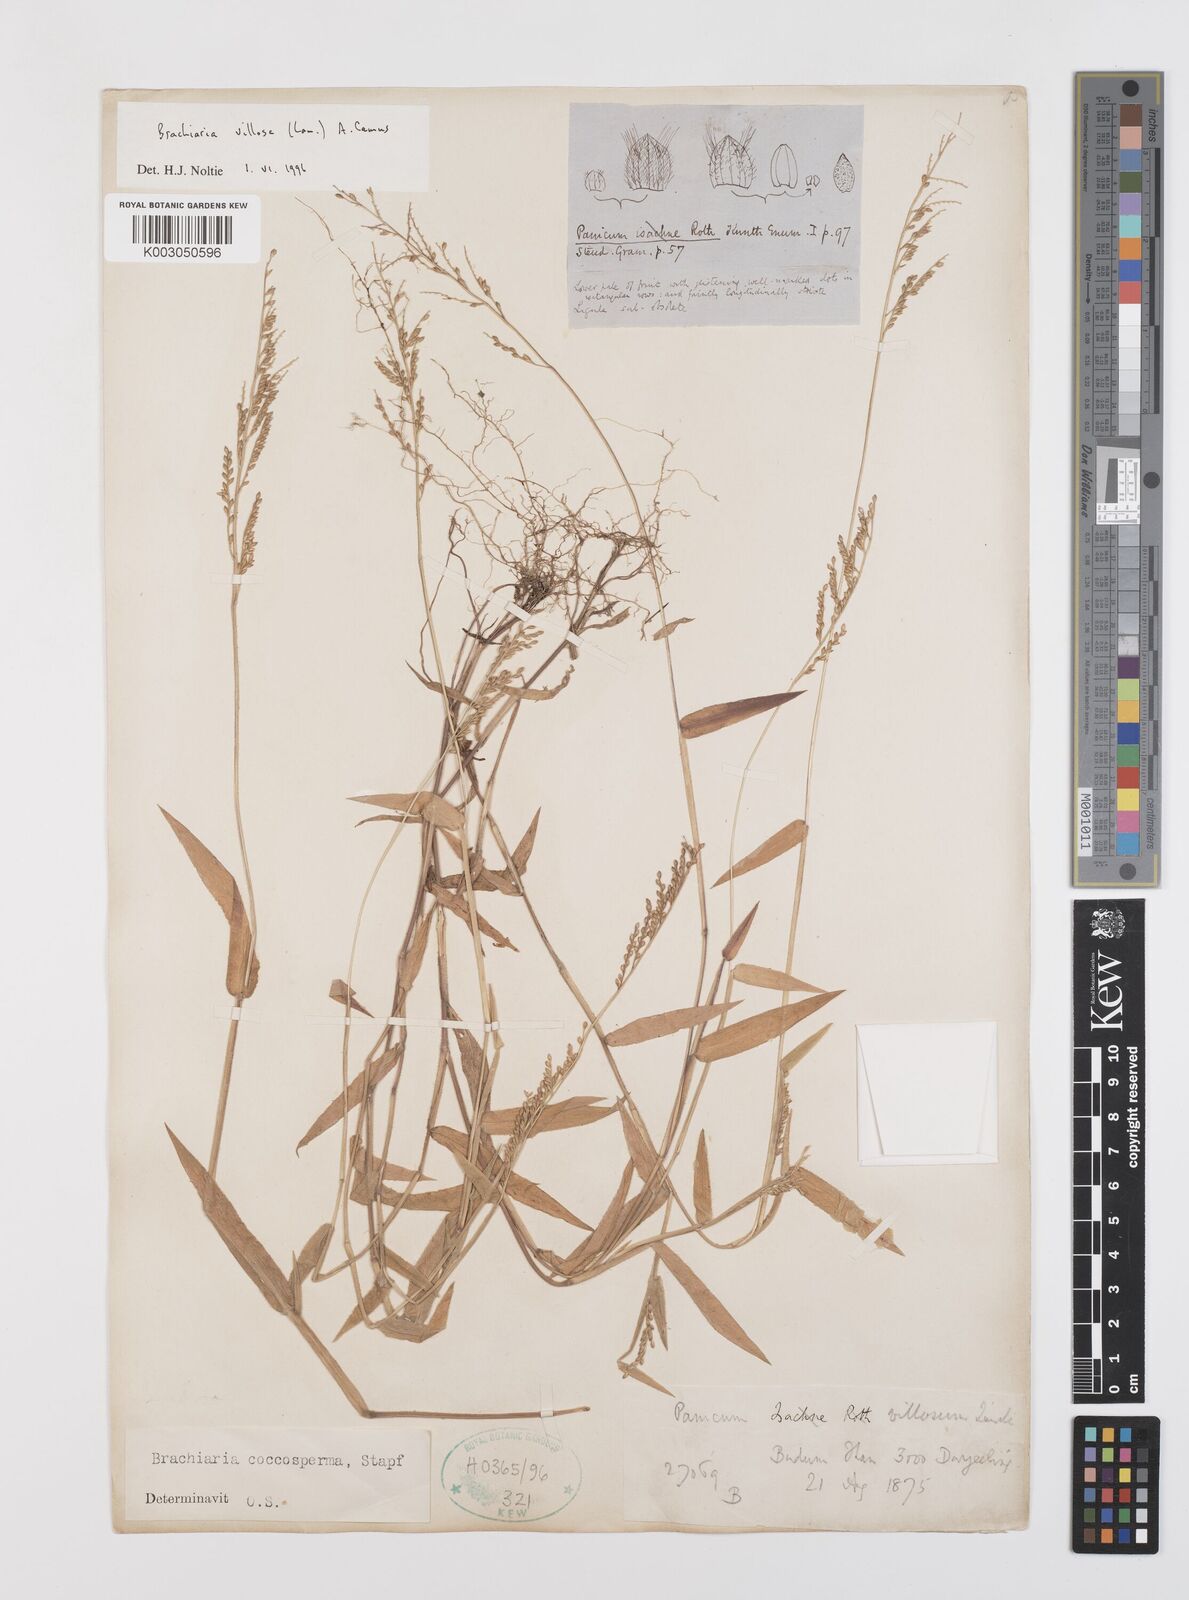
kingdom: Plantae
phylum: Tracheophyta
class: Liliopsida
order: Poales
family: Poaceae
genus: Urochloa
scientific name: Urochloa villosa
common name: Hairy signalgrass
